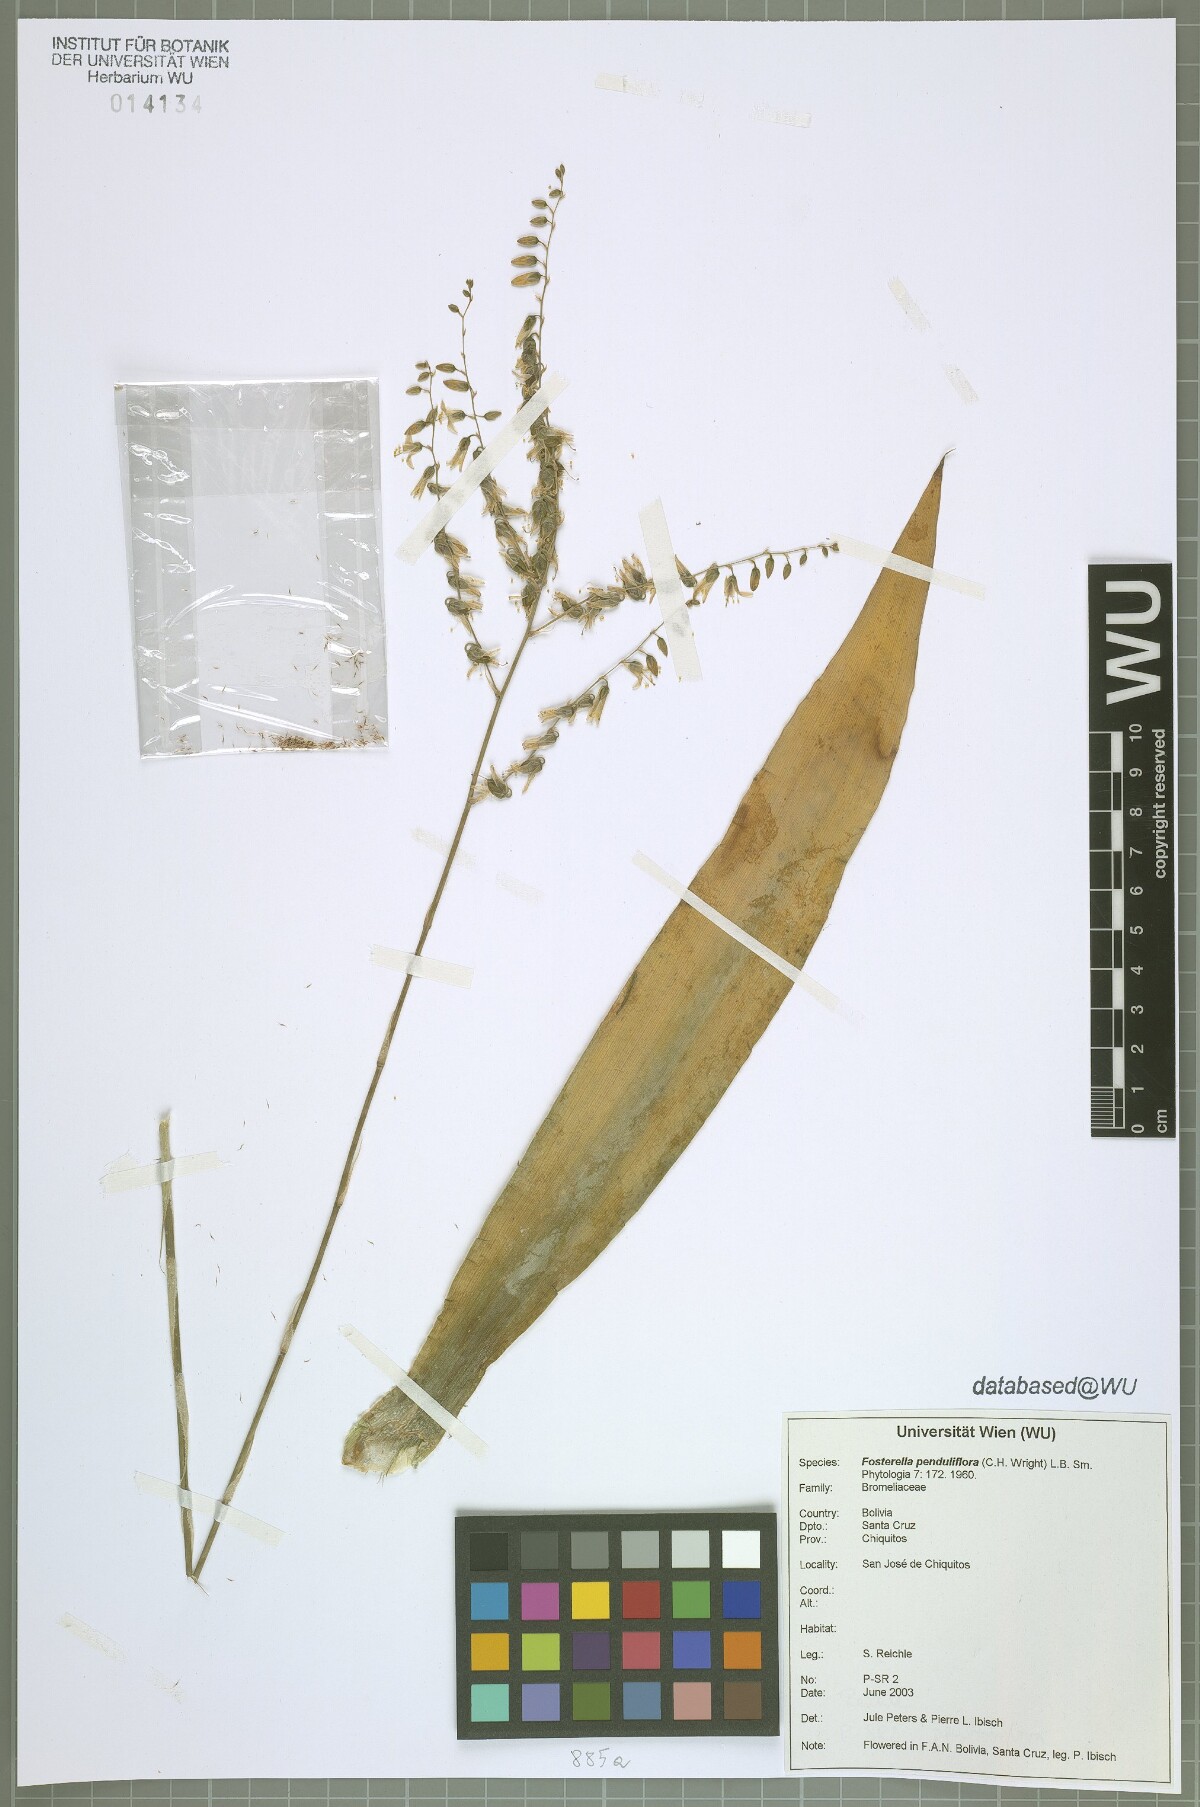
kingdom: Plantae
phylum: Tracheophyta
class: Liliopsida
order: Poales
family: Bromeliaceae
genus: Fosterella
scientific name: Fosterella penduliflora
